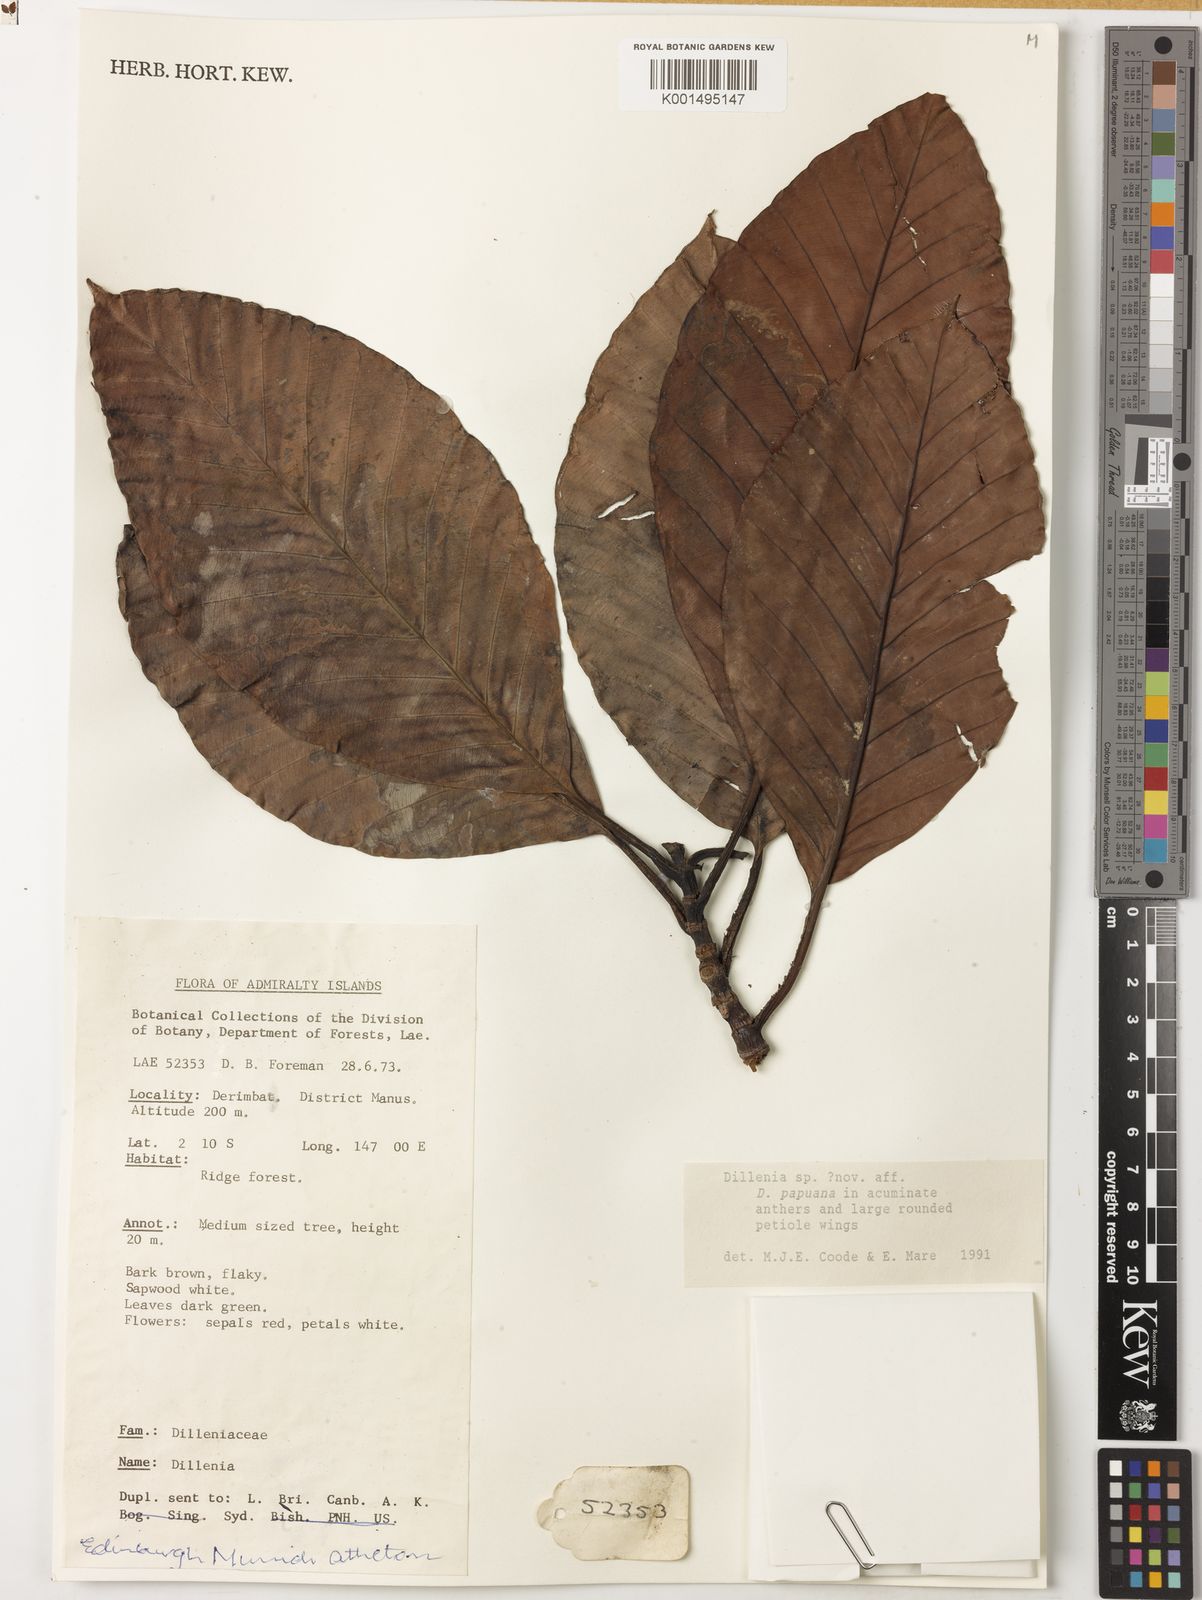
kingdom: Plantae
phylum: Tracheophyta
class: Magnoliopsida
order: Dilleniales
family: Dilleniaceae
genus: Dillenia
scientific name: Dillenia
